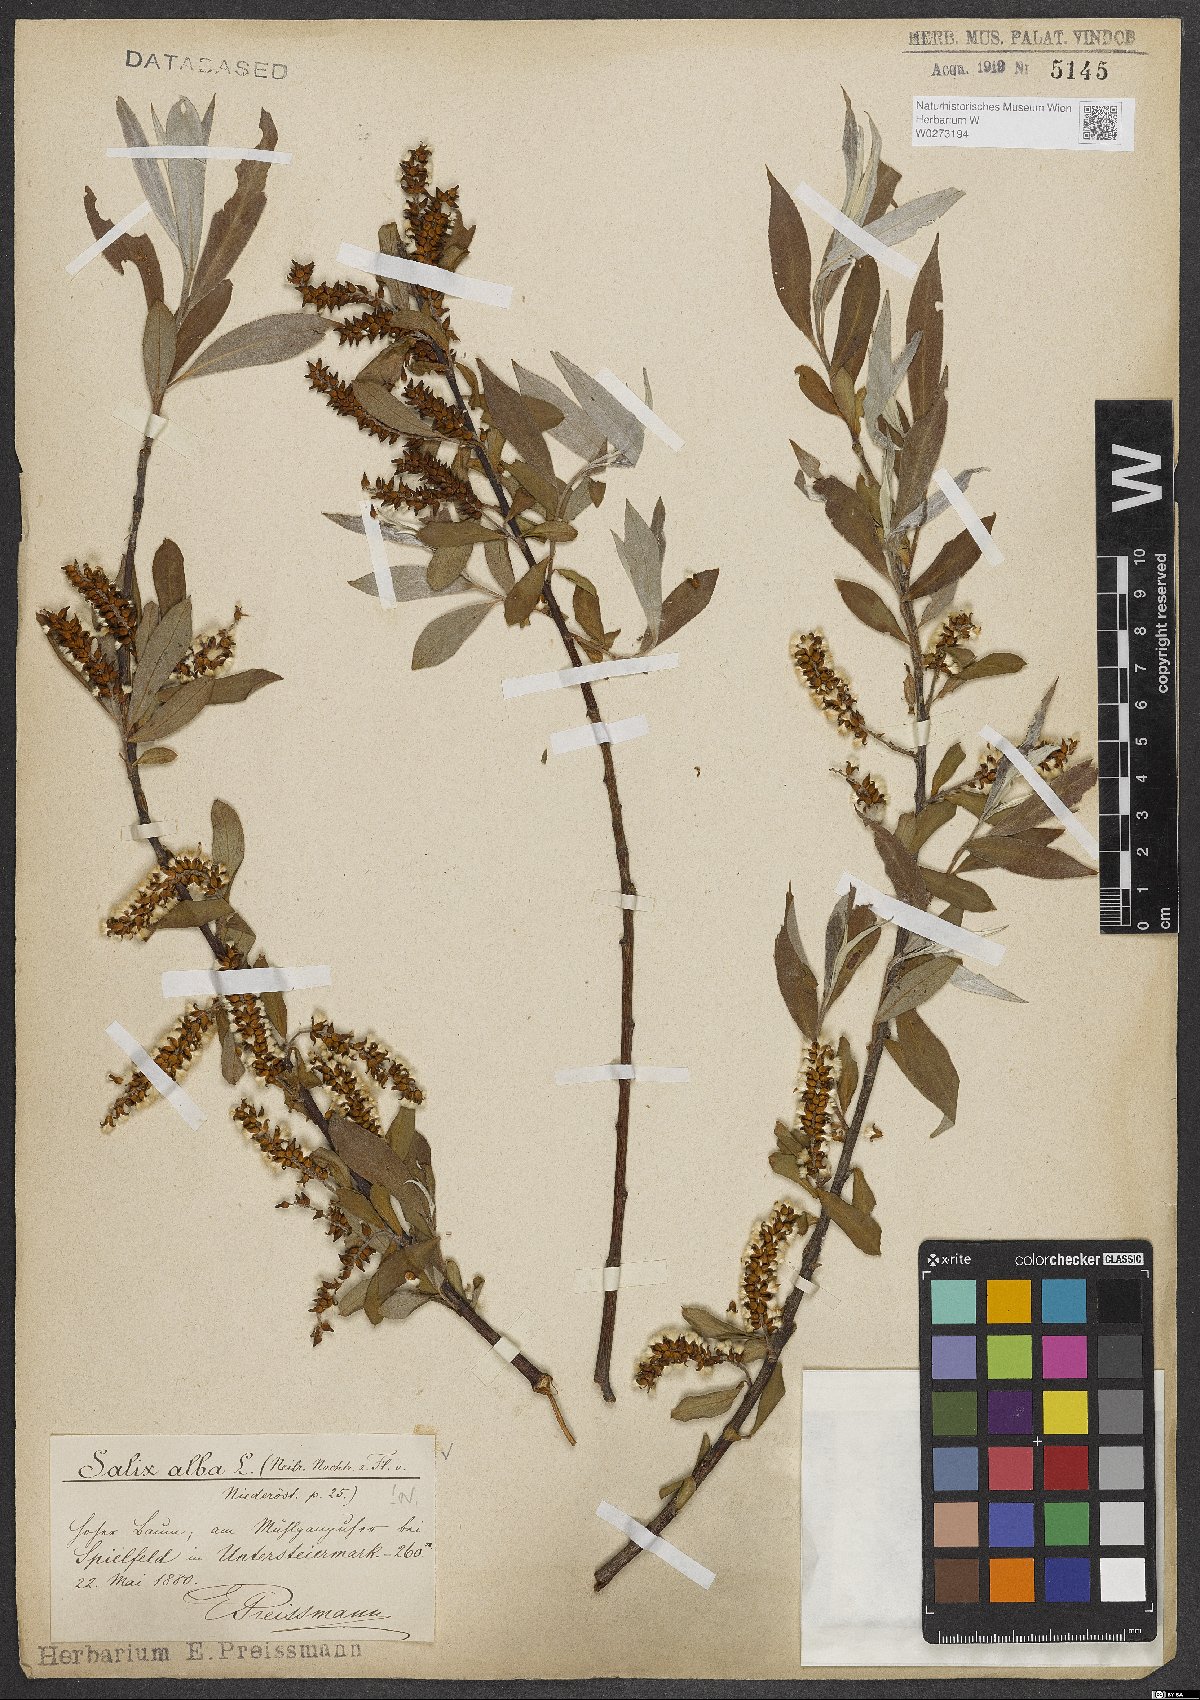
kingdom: Plantae
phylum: Tracheophyta
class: Magnoliopsida
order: Malpighiales
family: Salicaceae
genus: Salix
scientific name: Salix alba
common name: White willow
